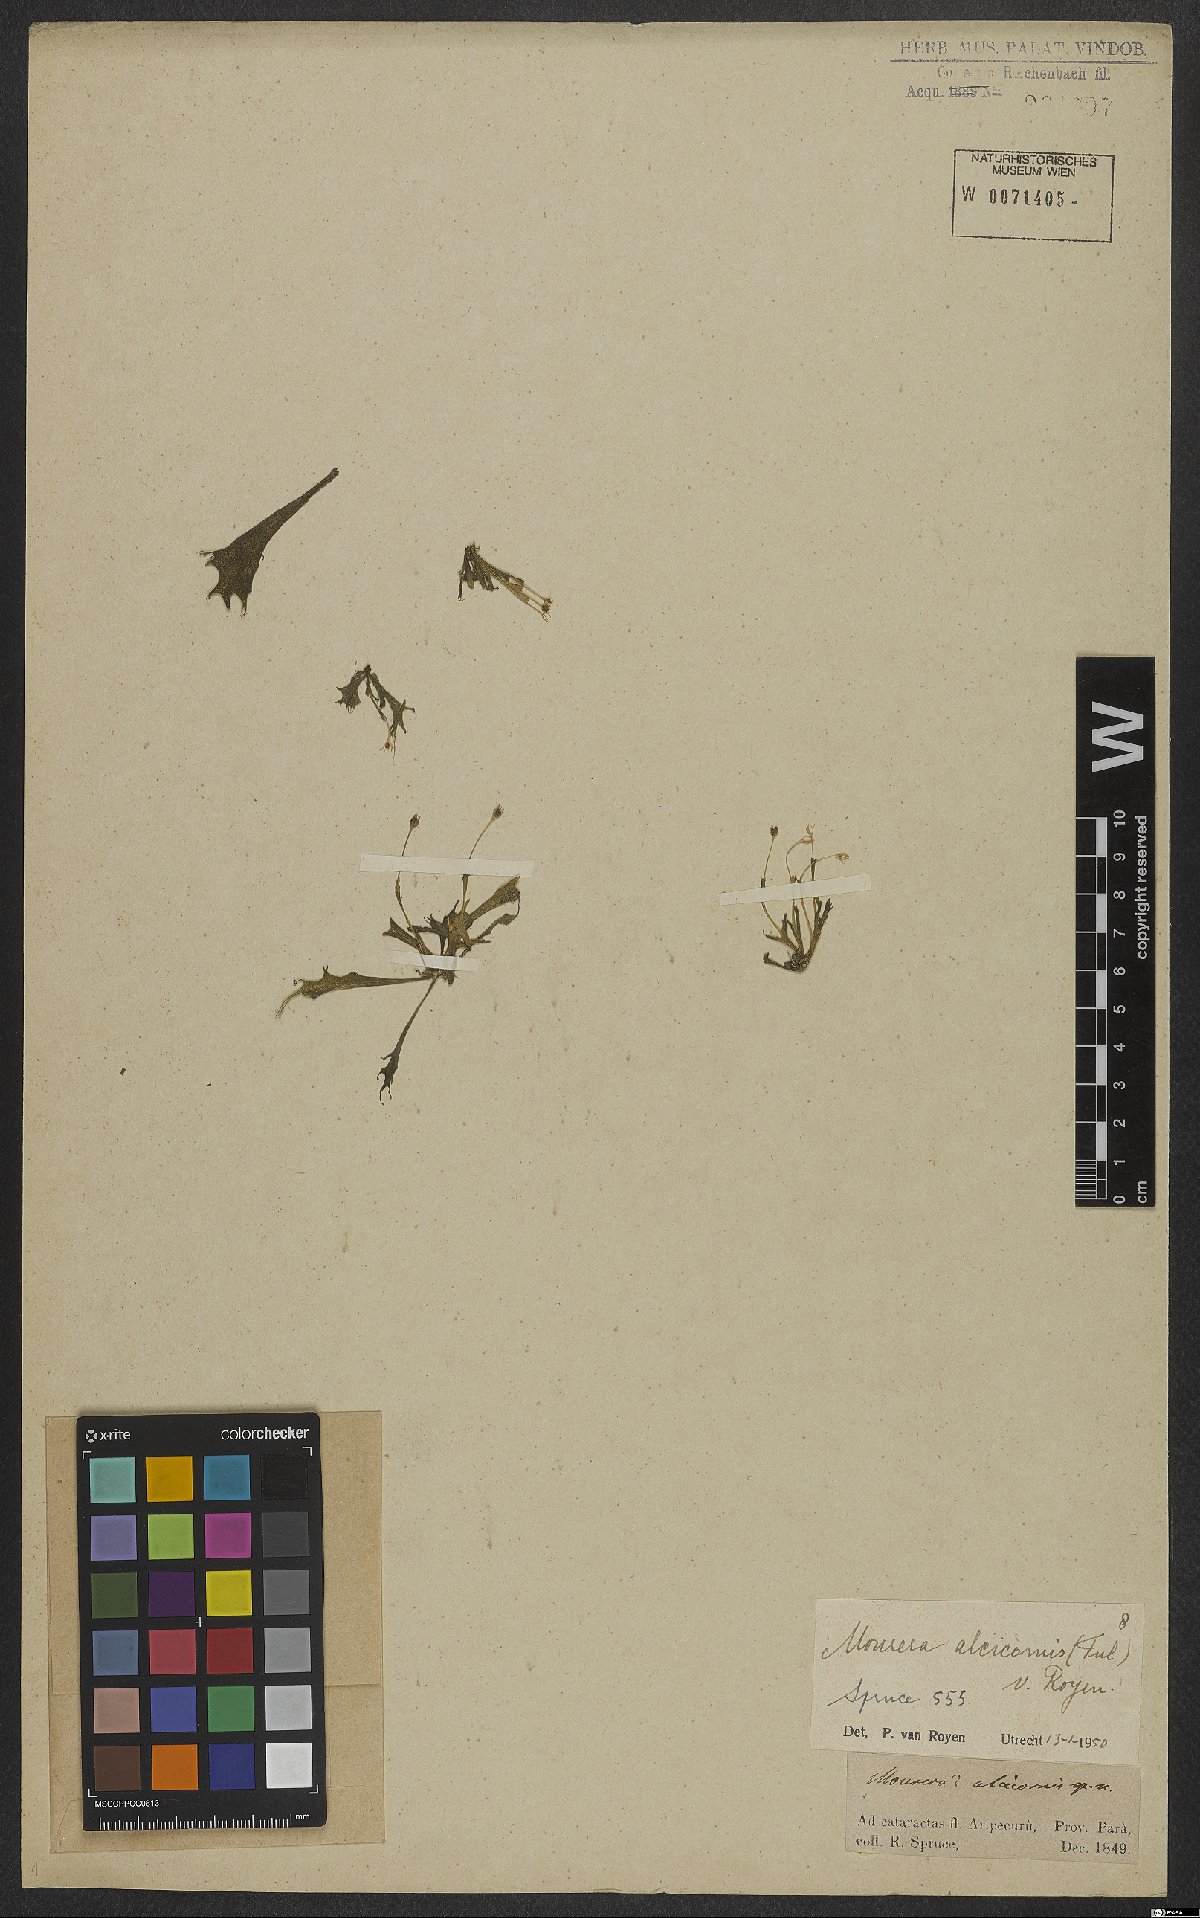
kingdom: Plantae
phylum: Tracheophyta
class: Magnoliopsida
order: Malpighiales
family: Podostemaceae
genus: Mourera
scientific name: Mourera alcicornis
